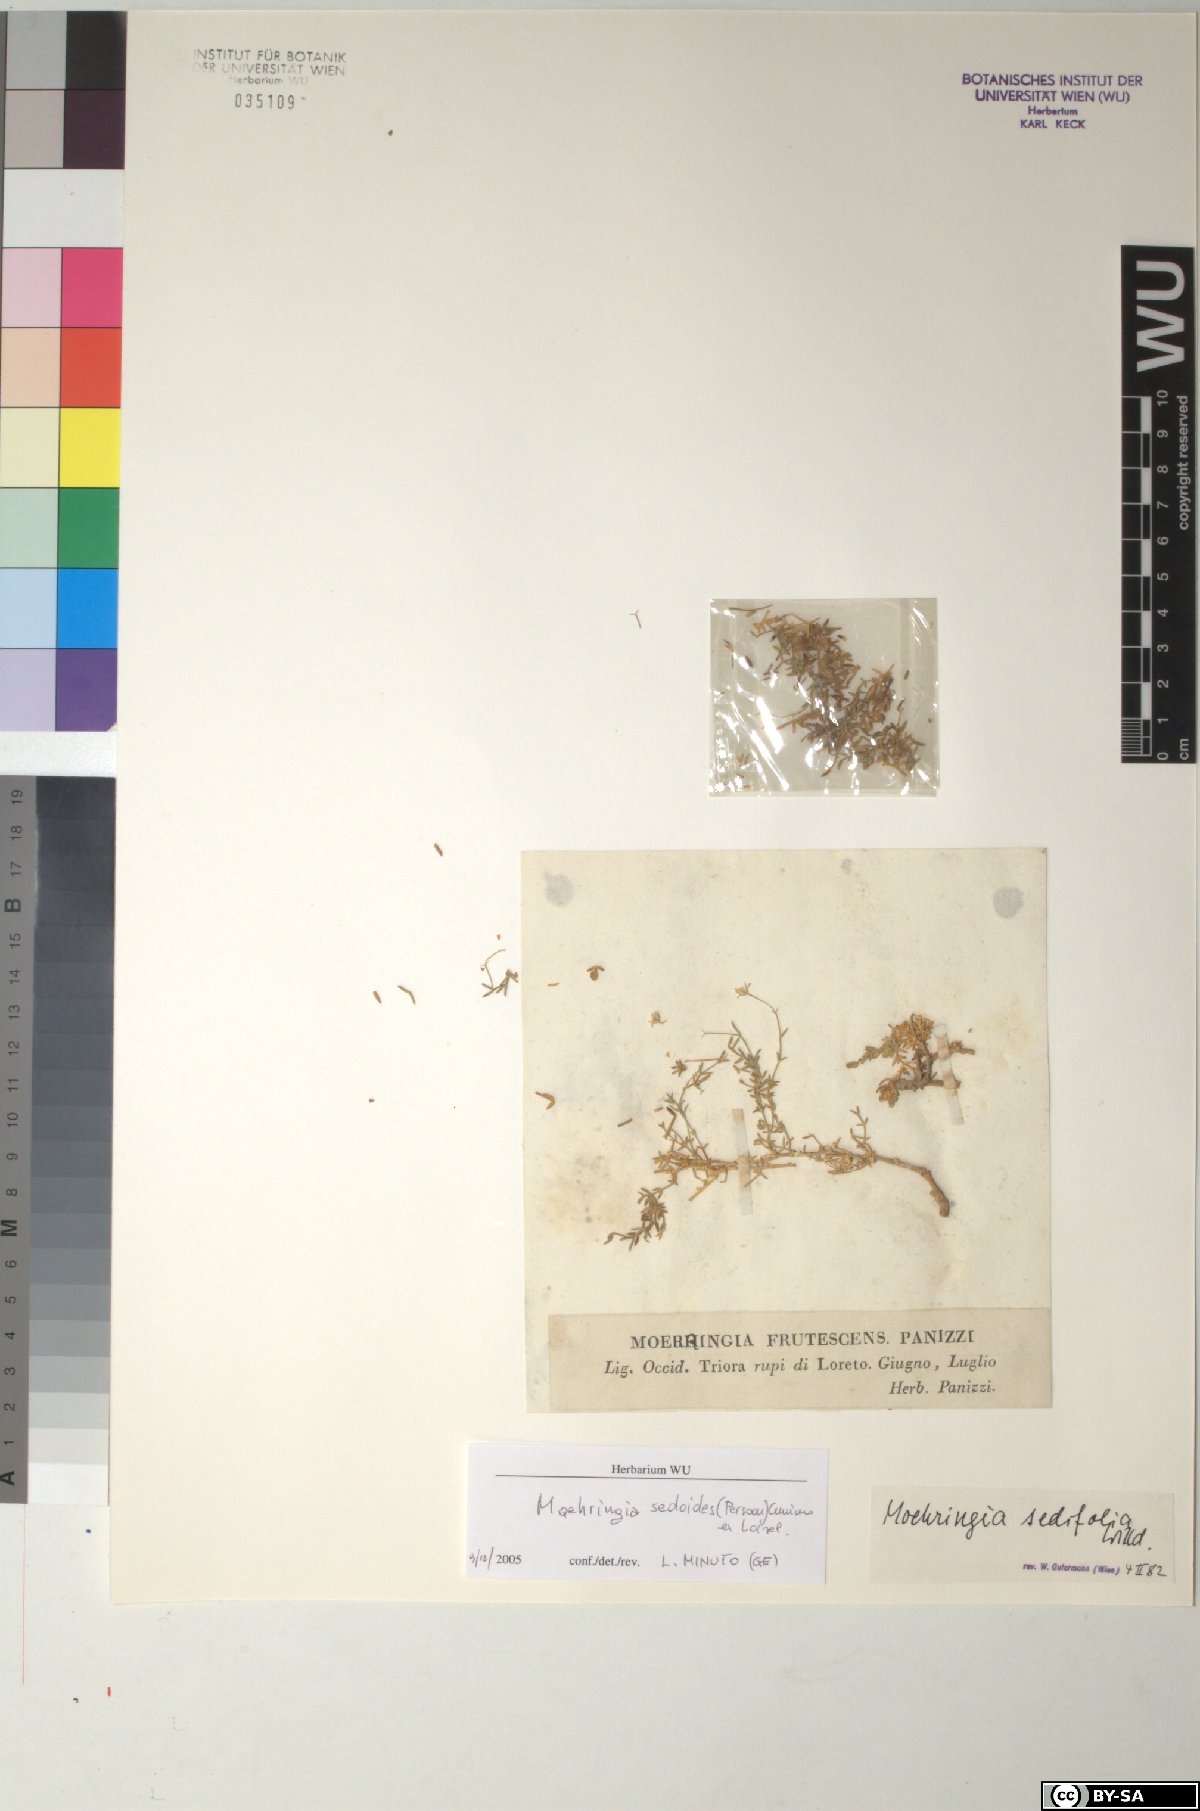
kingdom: Plantae
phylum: Tracheophyta
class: Magnoliopsida
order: Caryophyllales
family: Caryophyllaceae
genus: Moehringia
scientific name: Moehringia sedoides
